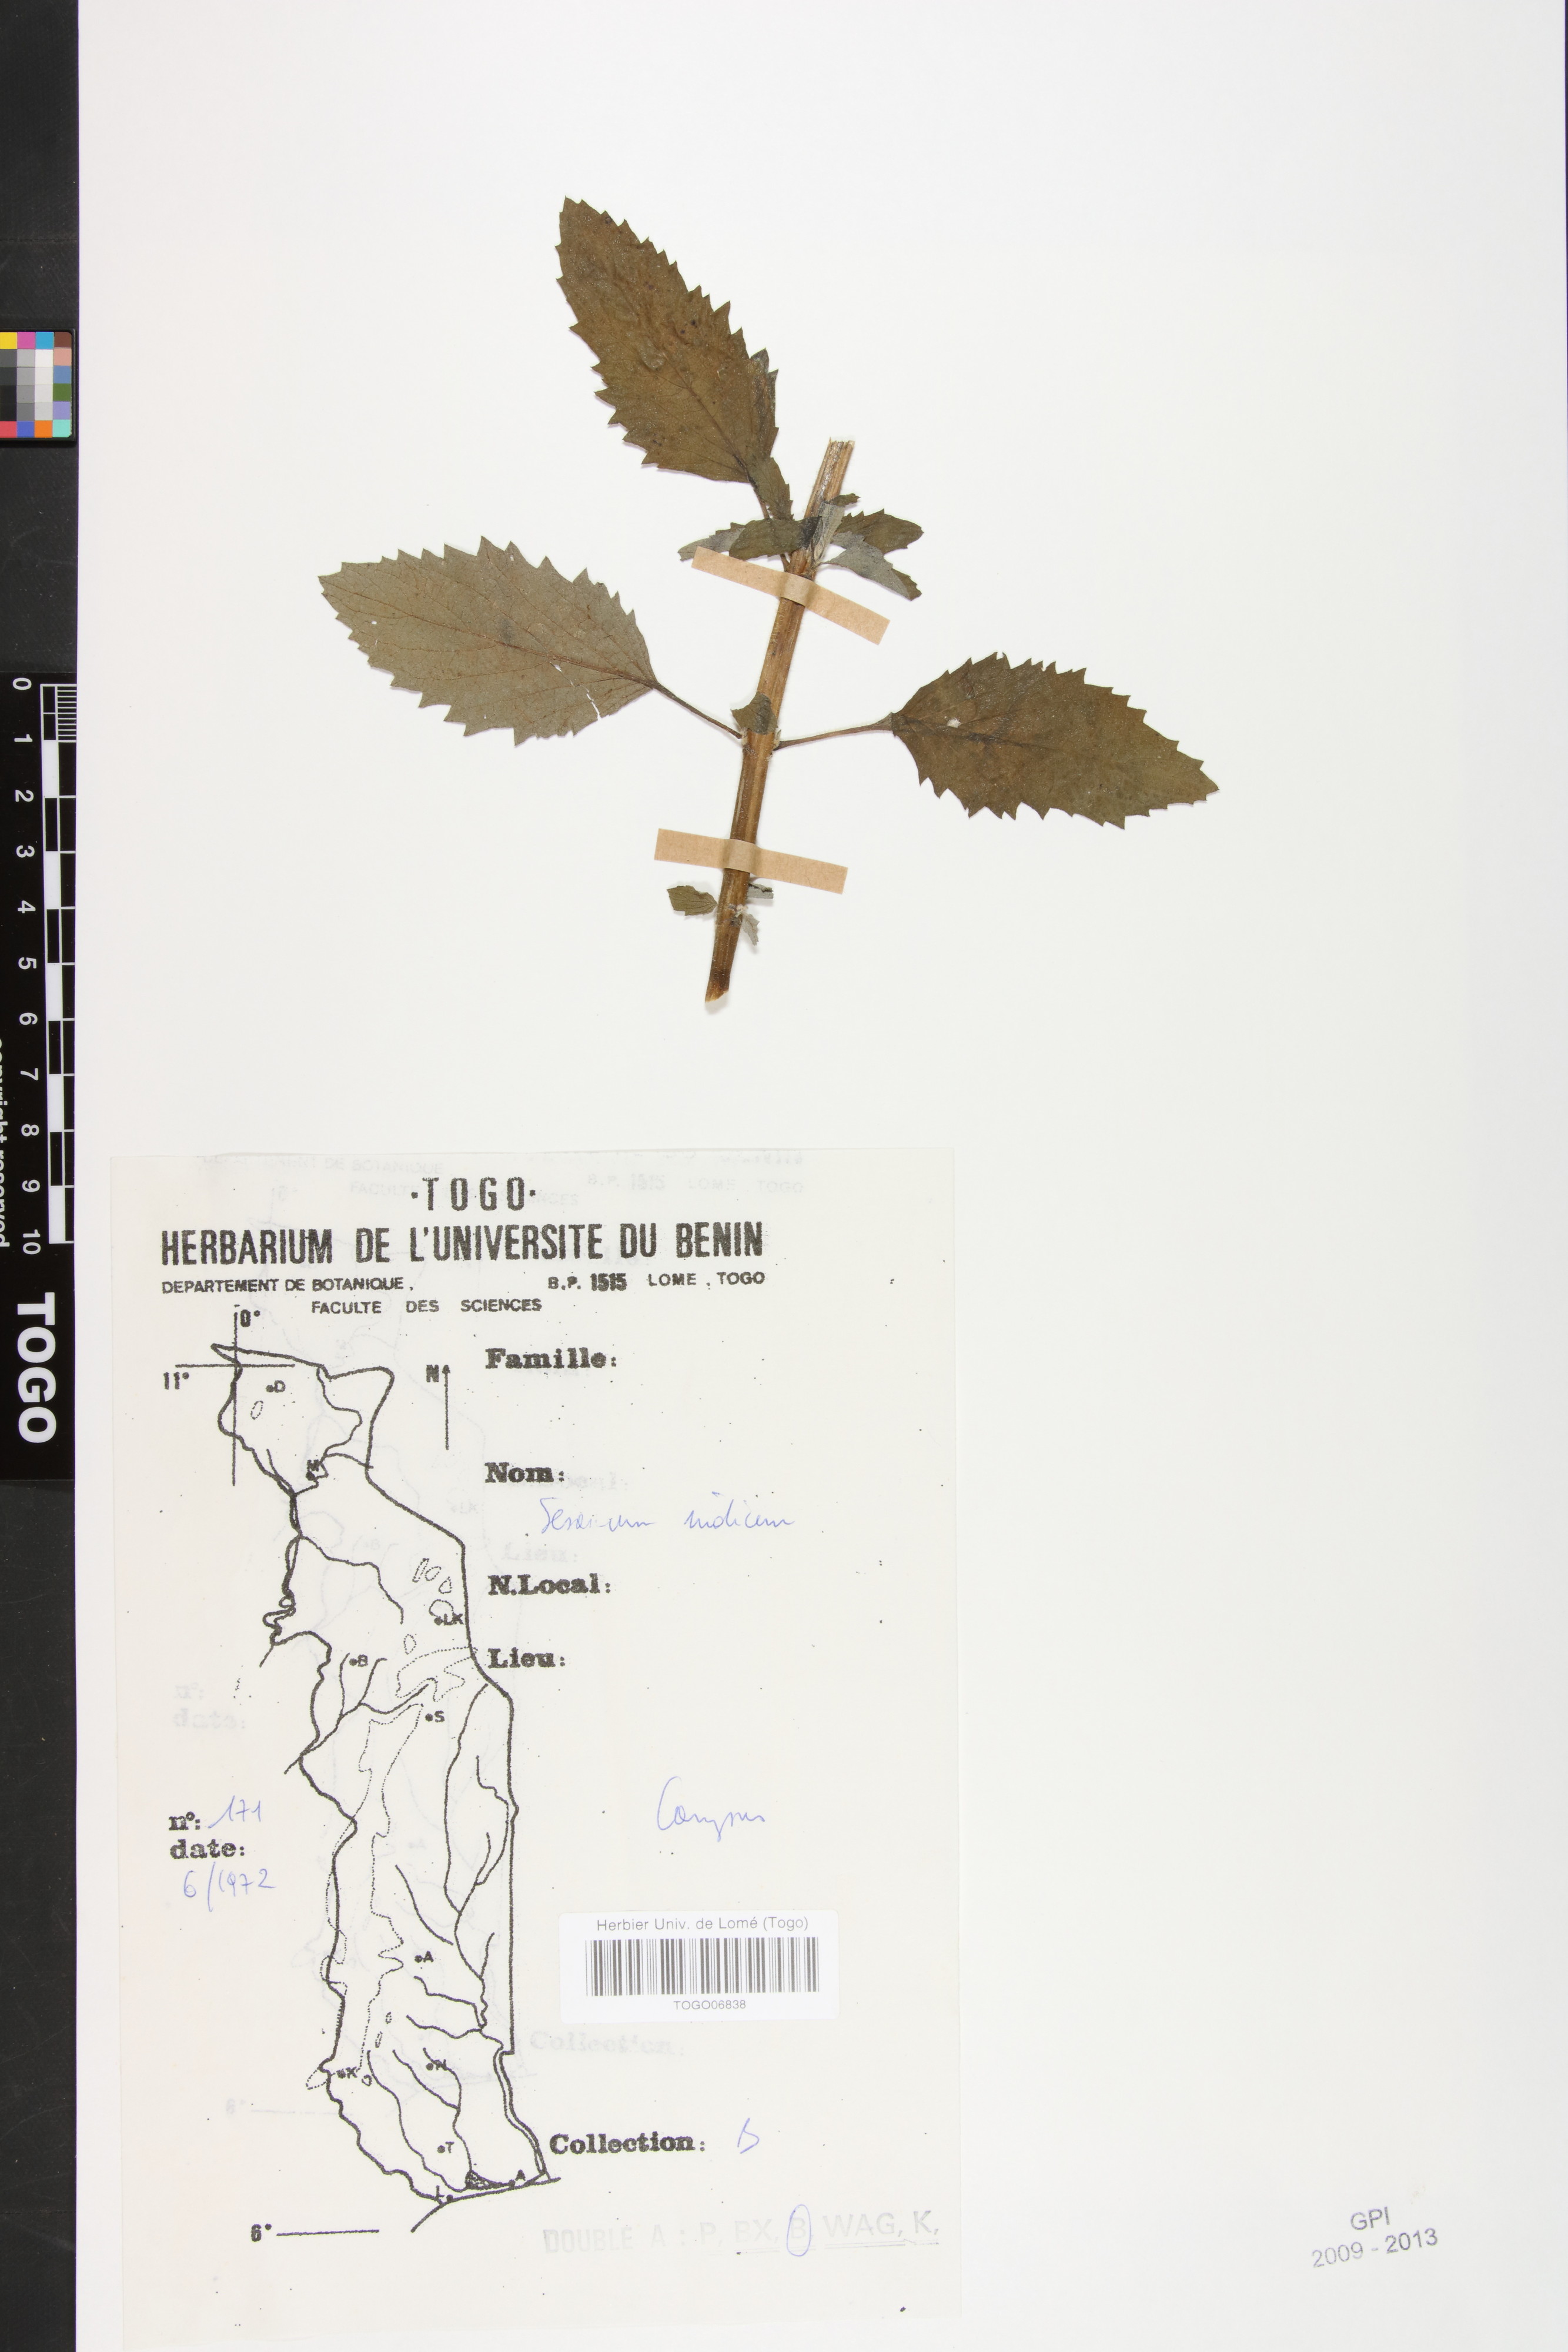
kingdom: Plantae
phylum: Tracheophyta
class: Magnoliopsida
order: Lamiales
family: Pedaliaceae
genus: Sesamum
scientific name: Sesamum indicum
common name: Sesame
